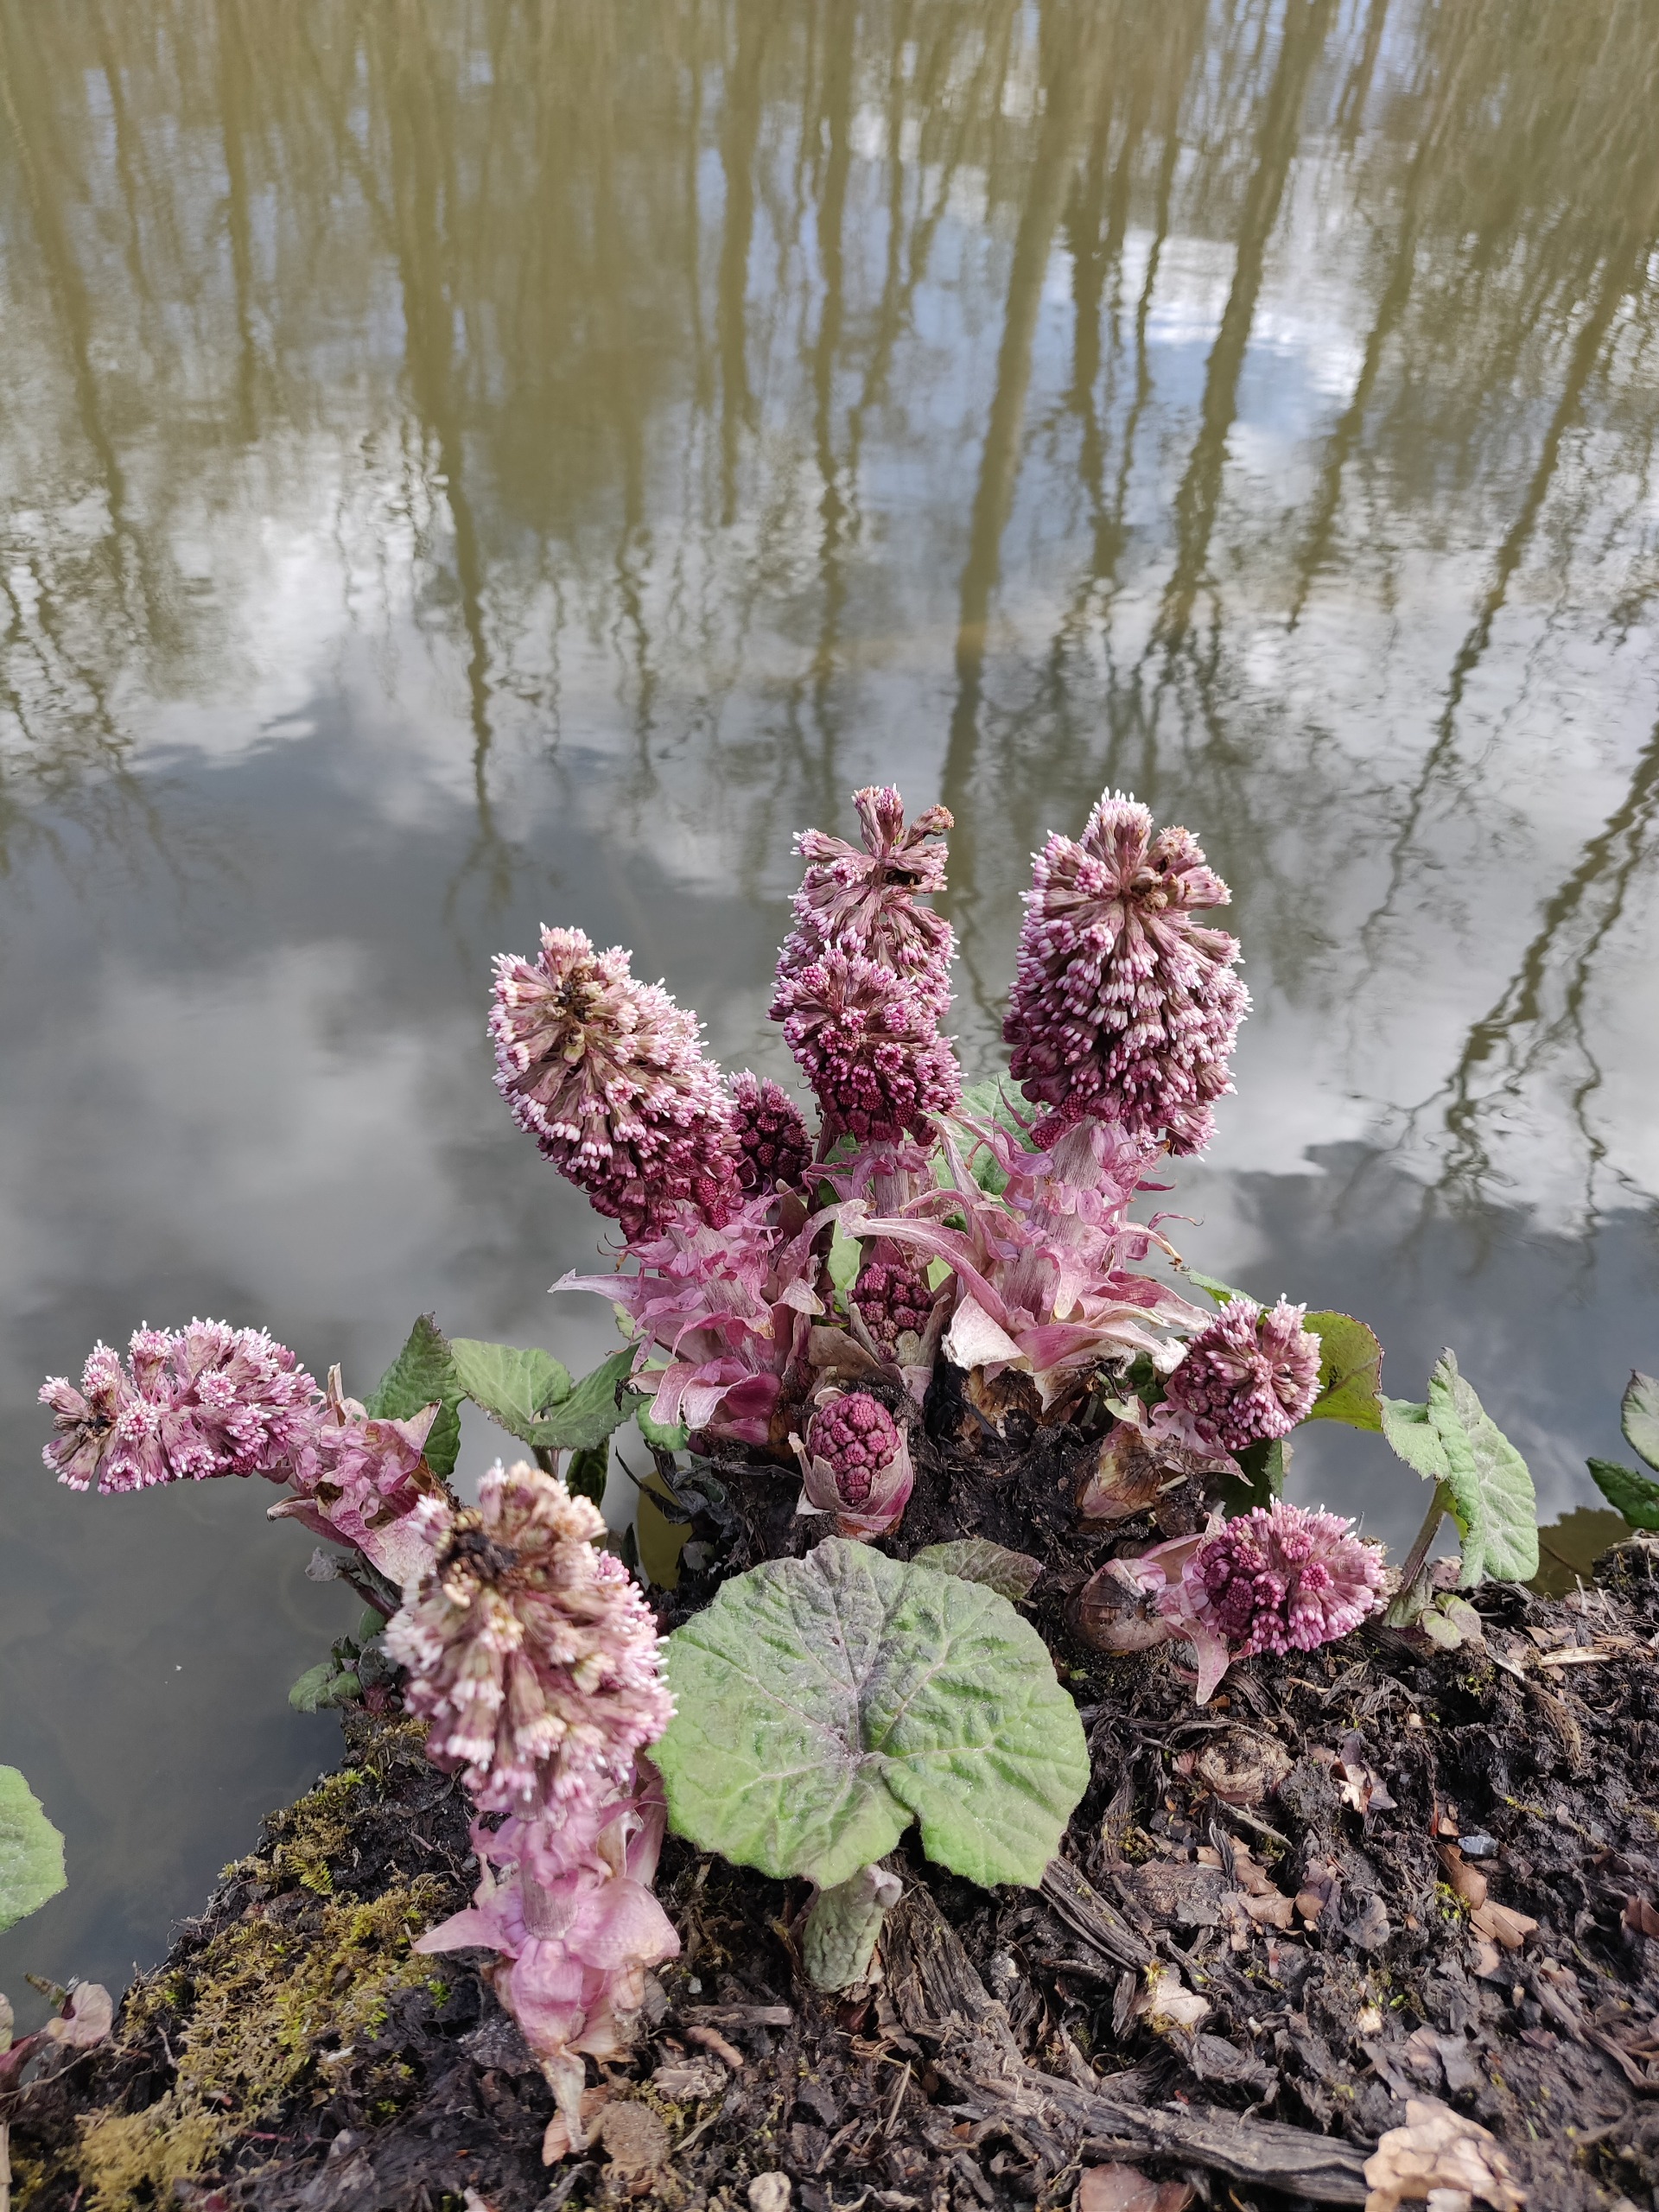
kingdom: Plantae
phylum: Tracheophyta
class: Magnoliopsida
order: Asterales
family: Asteraceae
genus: Petasites
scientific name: Petasites hybridus
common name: Rød hestehov
